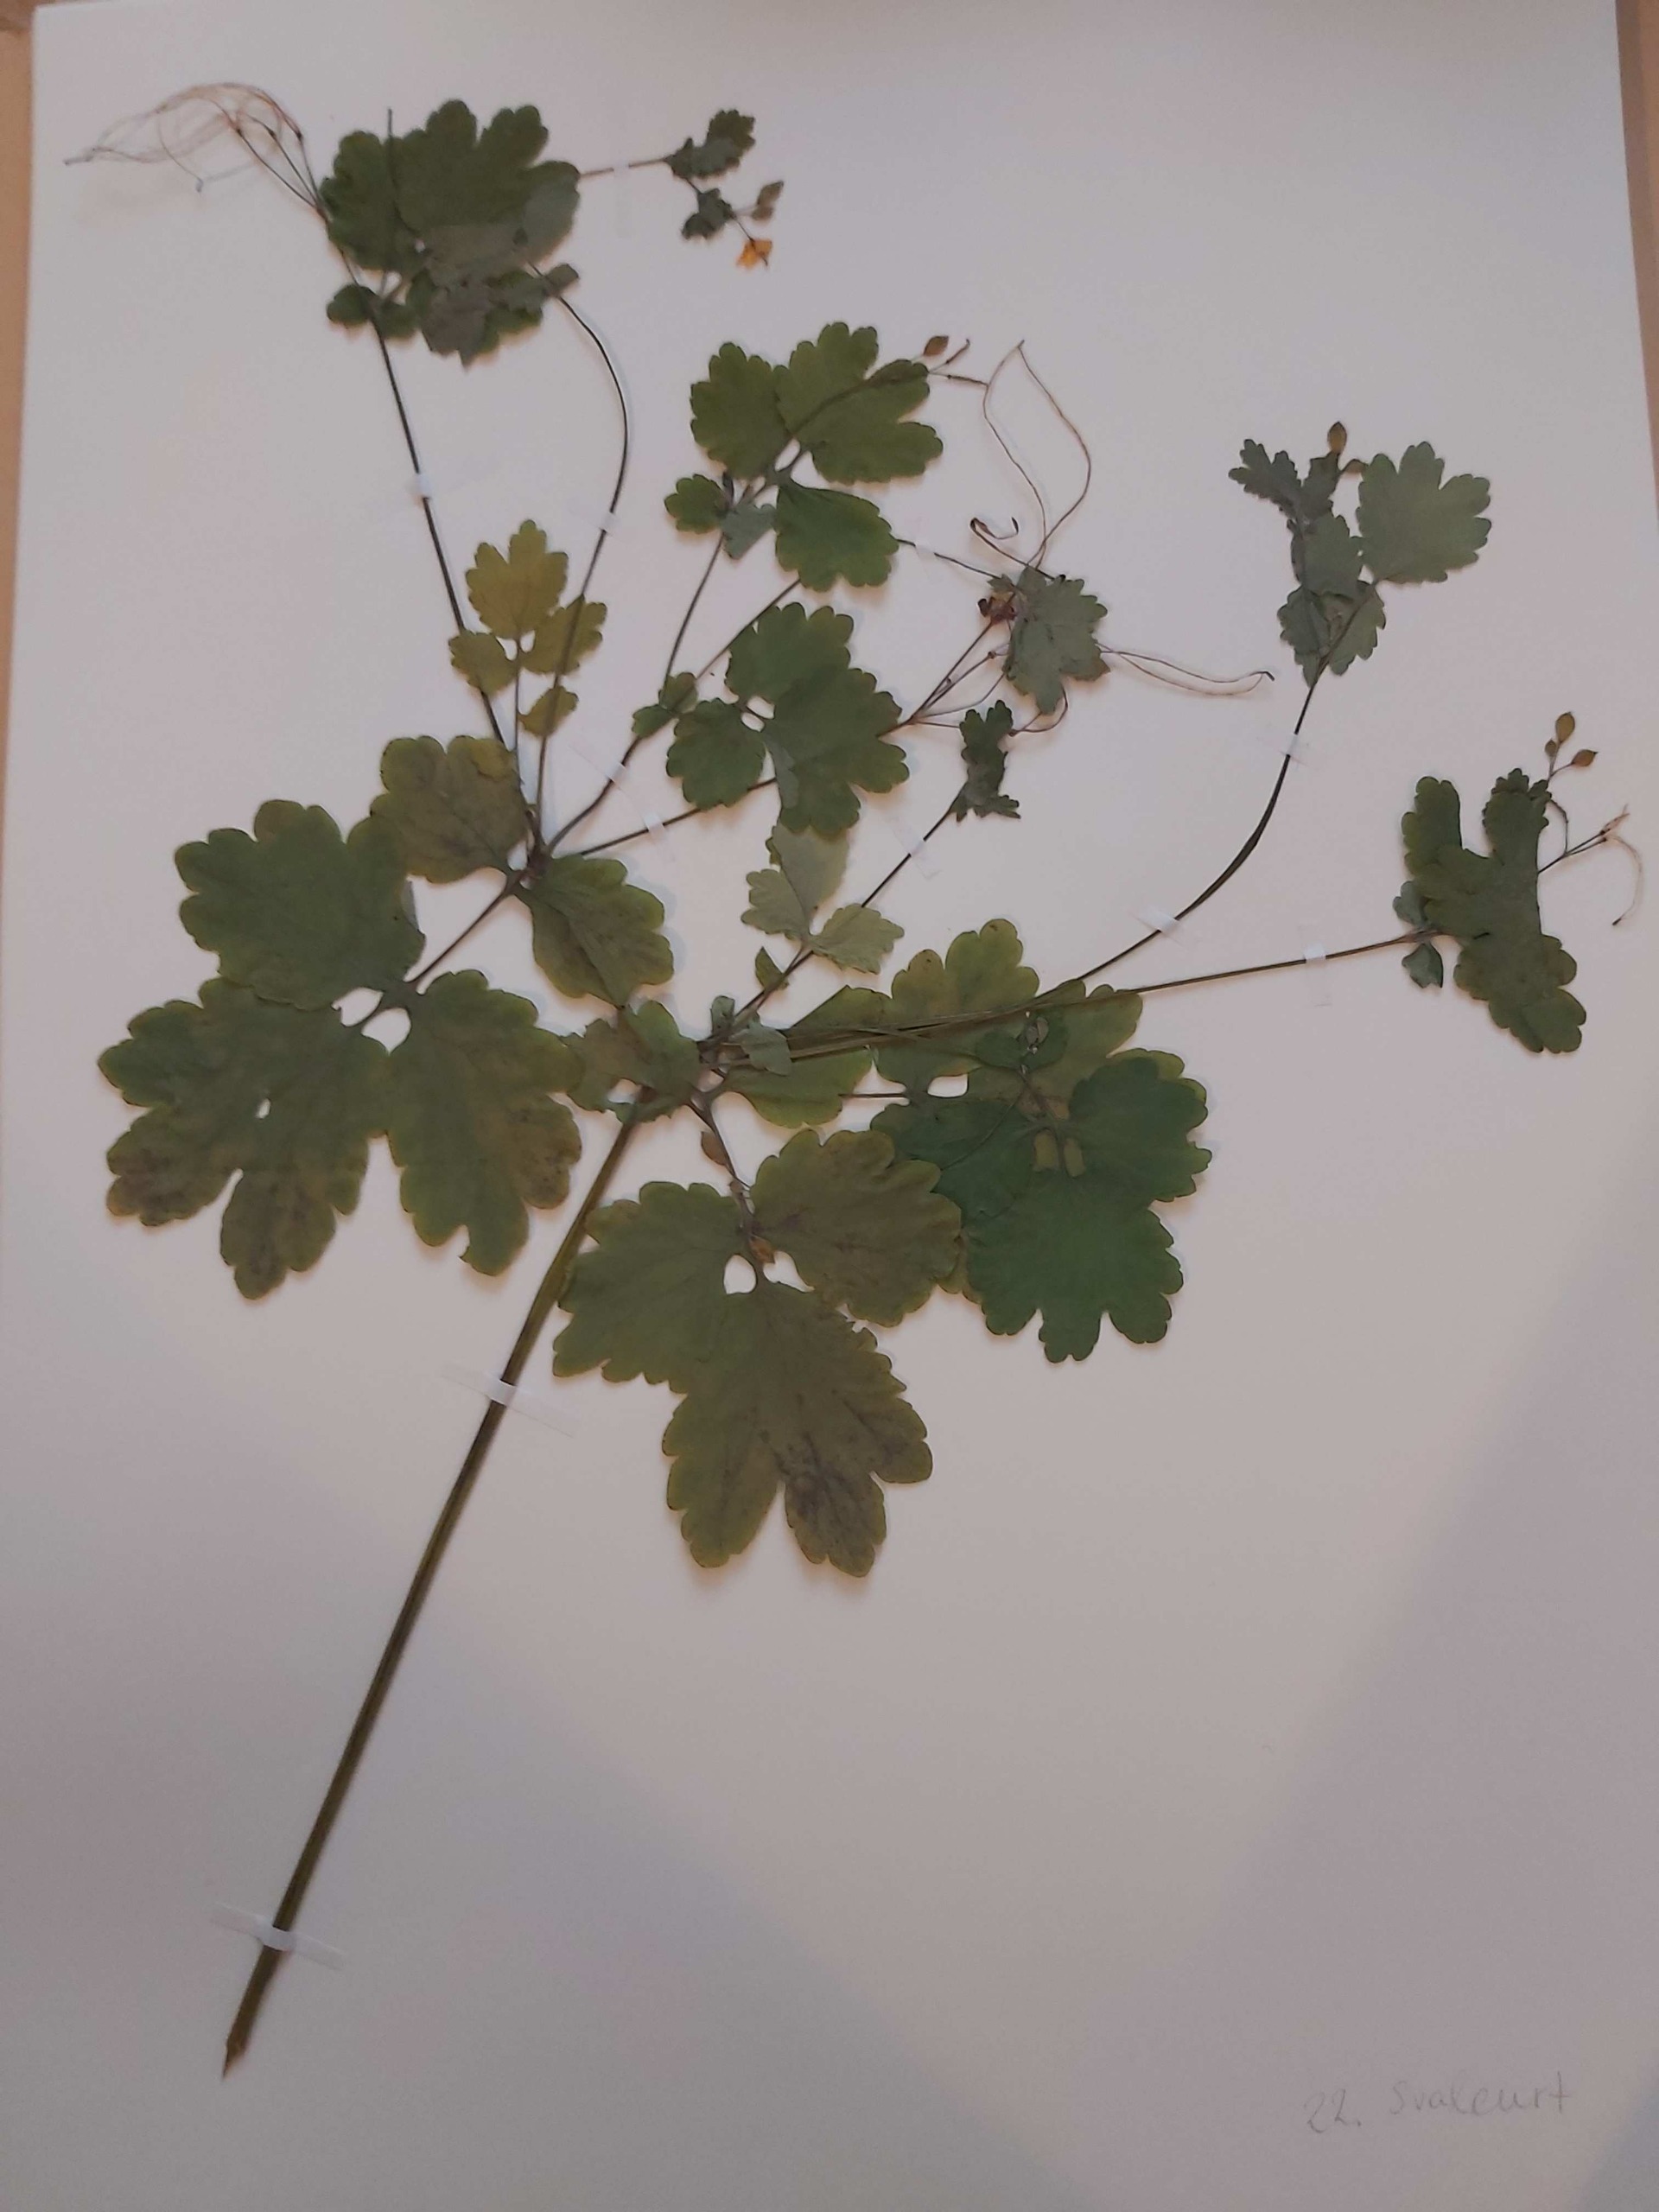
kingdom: Plantae
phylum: Tracheophyta
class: Magnoliopsida
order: Ranunculales
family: Papaveraceae
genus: Chelidonium
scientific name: Chelidonium majus
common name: Svaleurt
